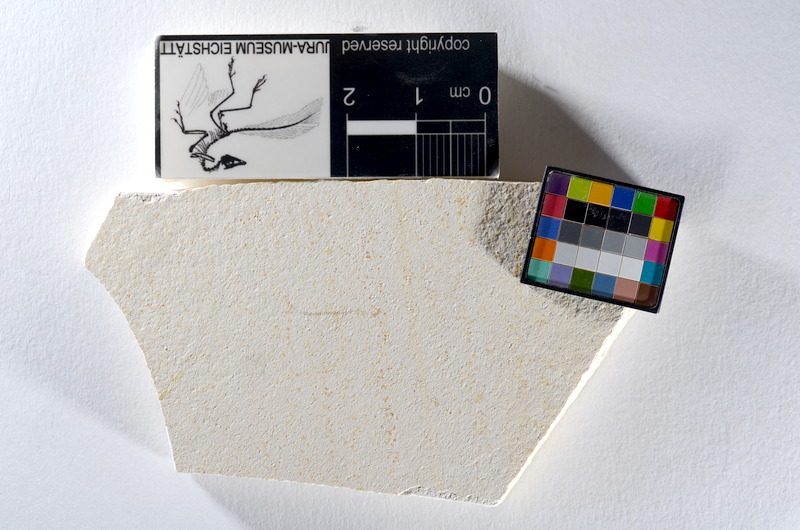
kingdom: Animalia
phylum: Chordata
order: Salmoniformes
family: Orthogonikleithridae
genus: Orthogonikleithrus
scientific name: Orthogonikleithrus hoelli
